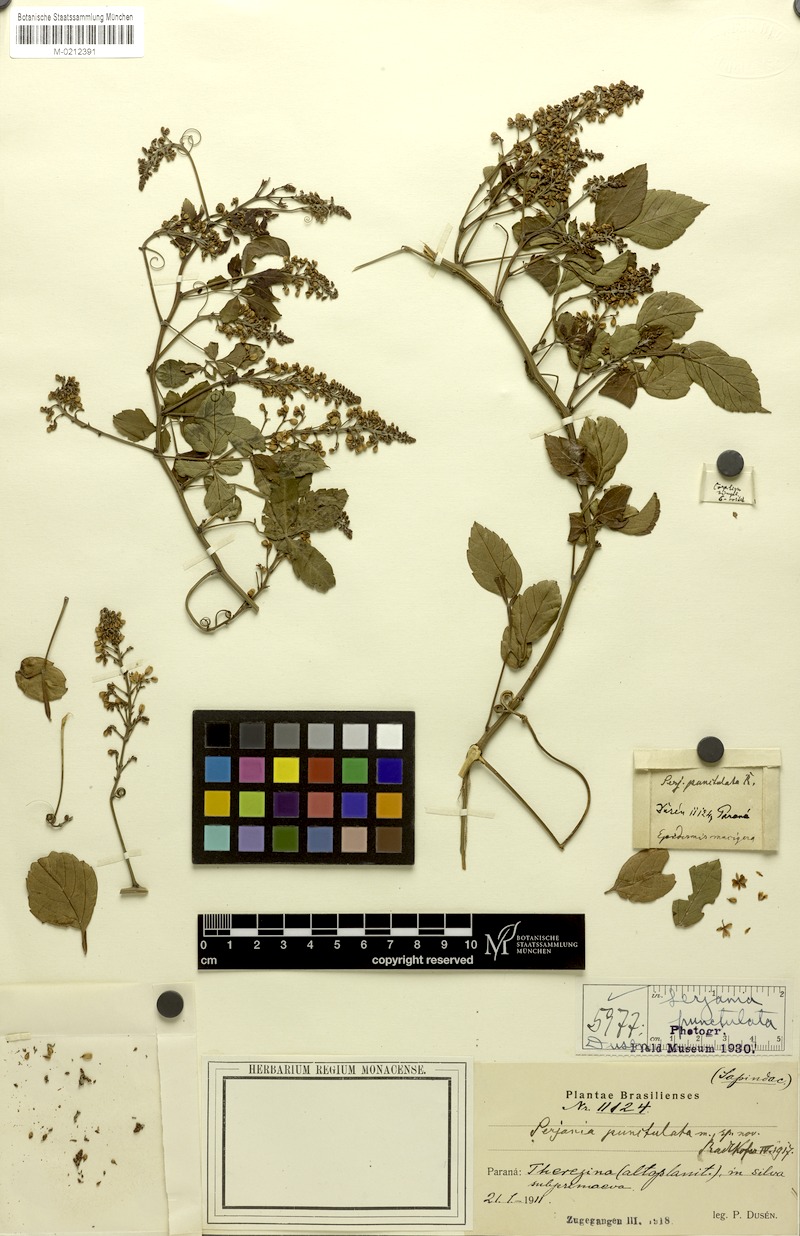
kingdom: Plantae
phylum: Tracheophyta
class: Magnoliopsida
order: Sapindales
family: Sapindaceae
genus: Serjania
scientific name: Serjania punctulata
